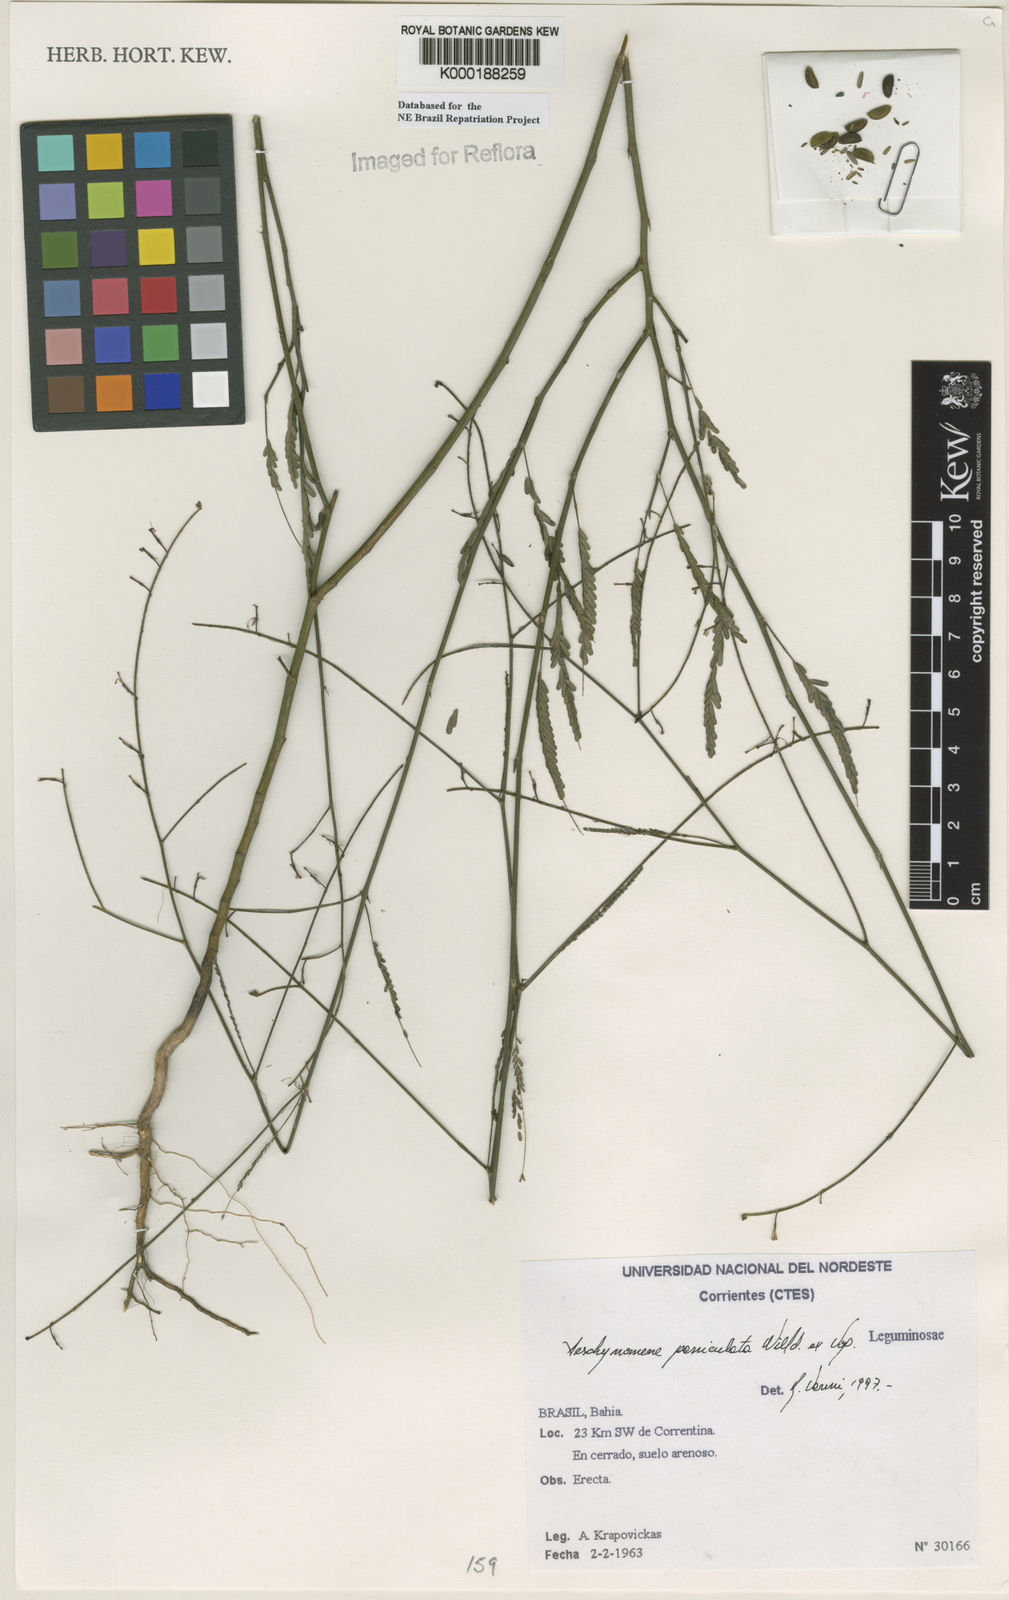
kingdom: Plantae
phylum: Tracheophyta
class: Magnoliopsida
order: Fabales
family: Fabaceae
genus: Ctenodon
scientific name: Ctenodon paniculatus
